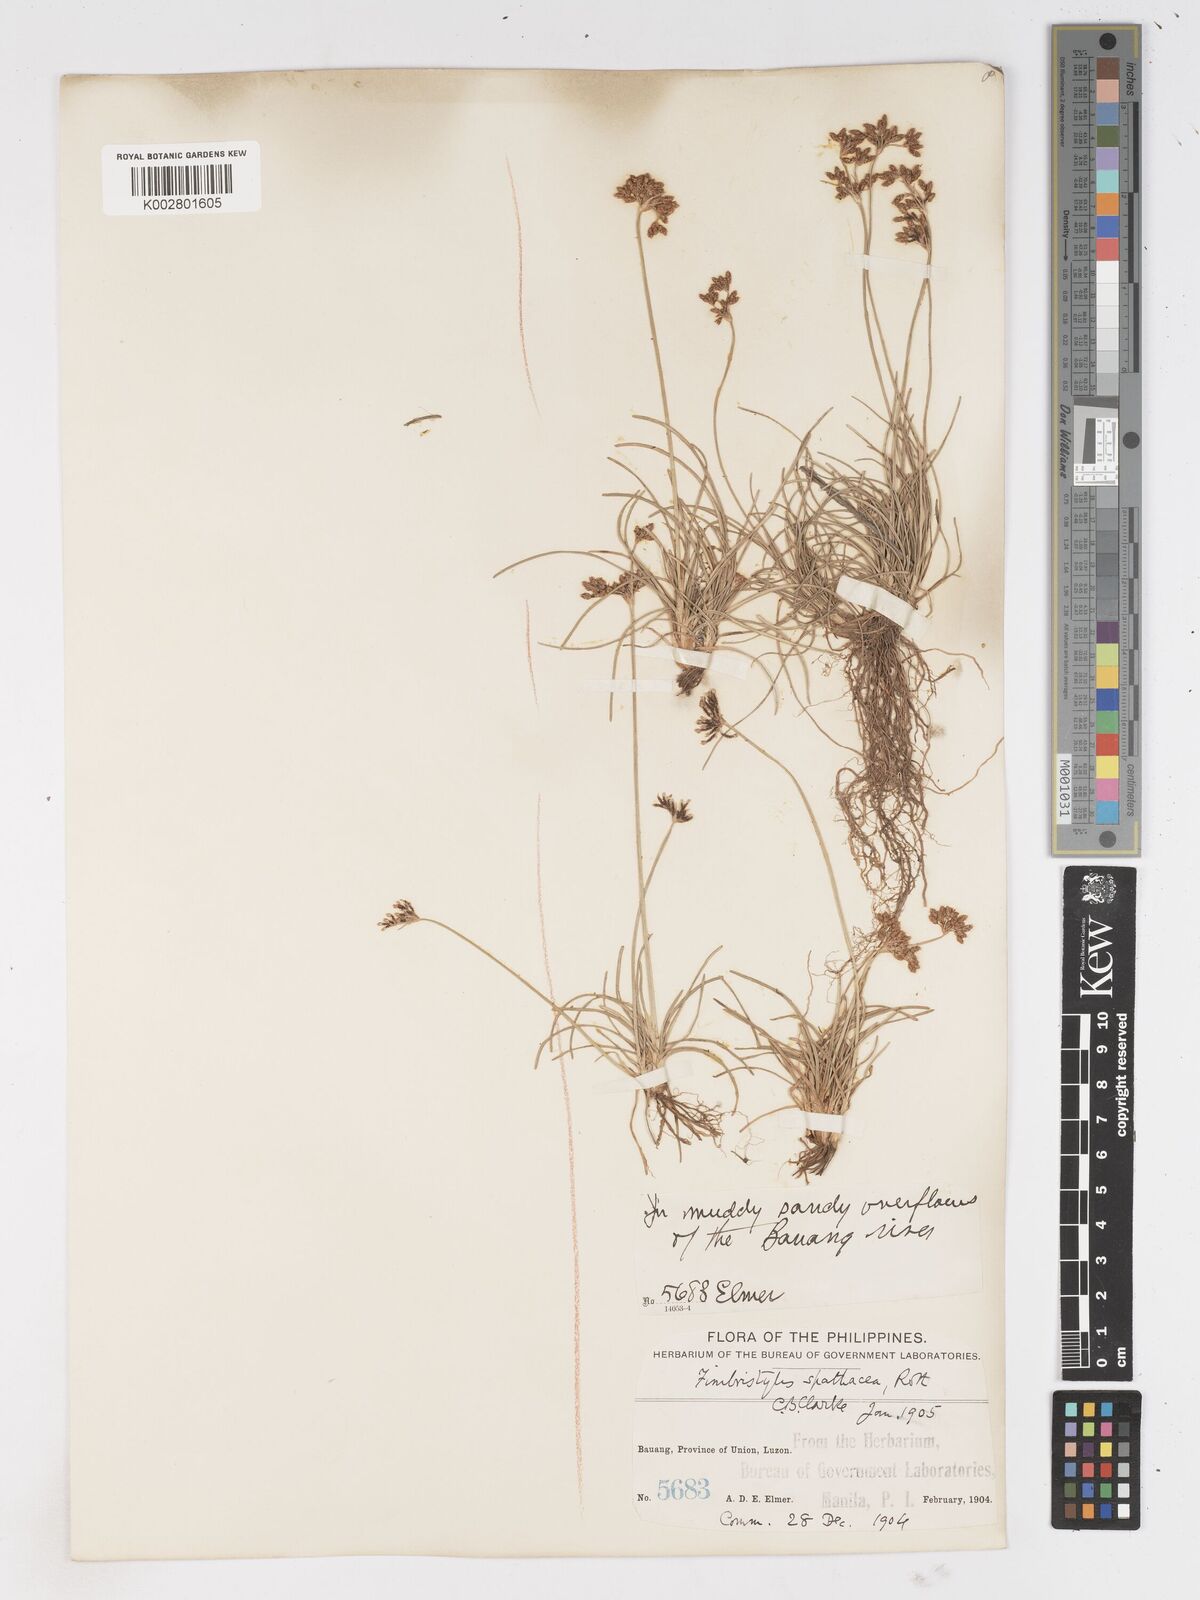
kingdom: Plantae
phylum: Tracheophyta
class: Liliopsida
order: Poales
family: Cyperaceae
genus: Fimbristylis
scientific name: Fimbristylis cymosa
